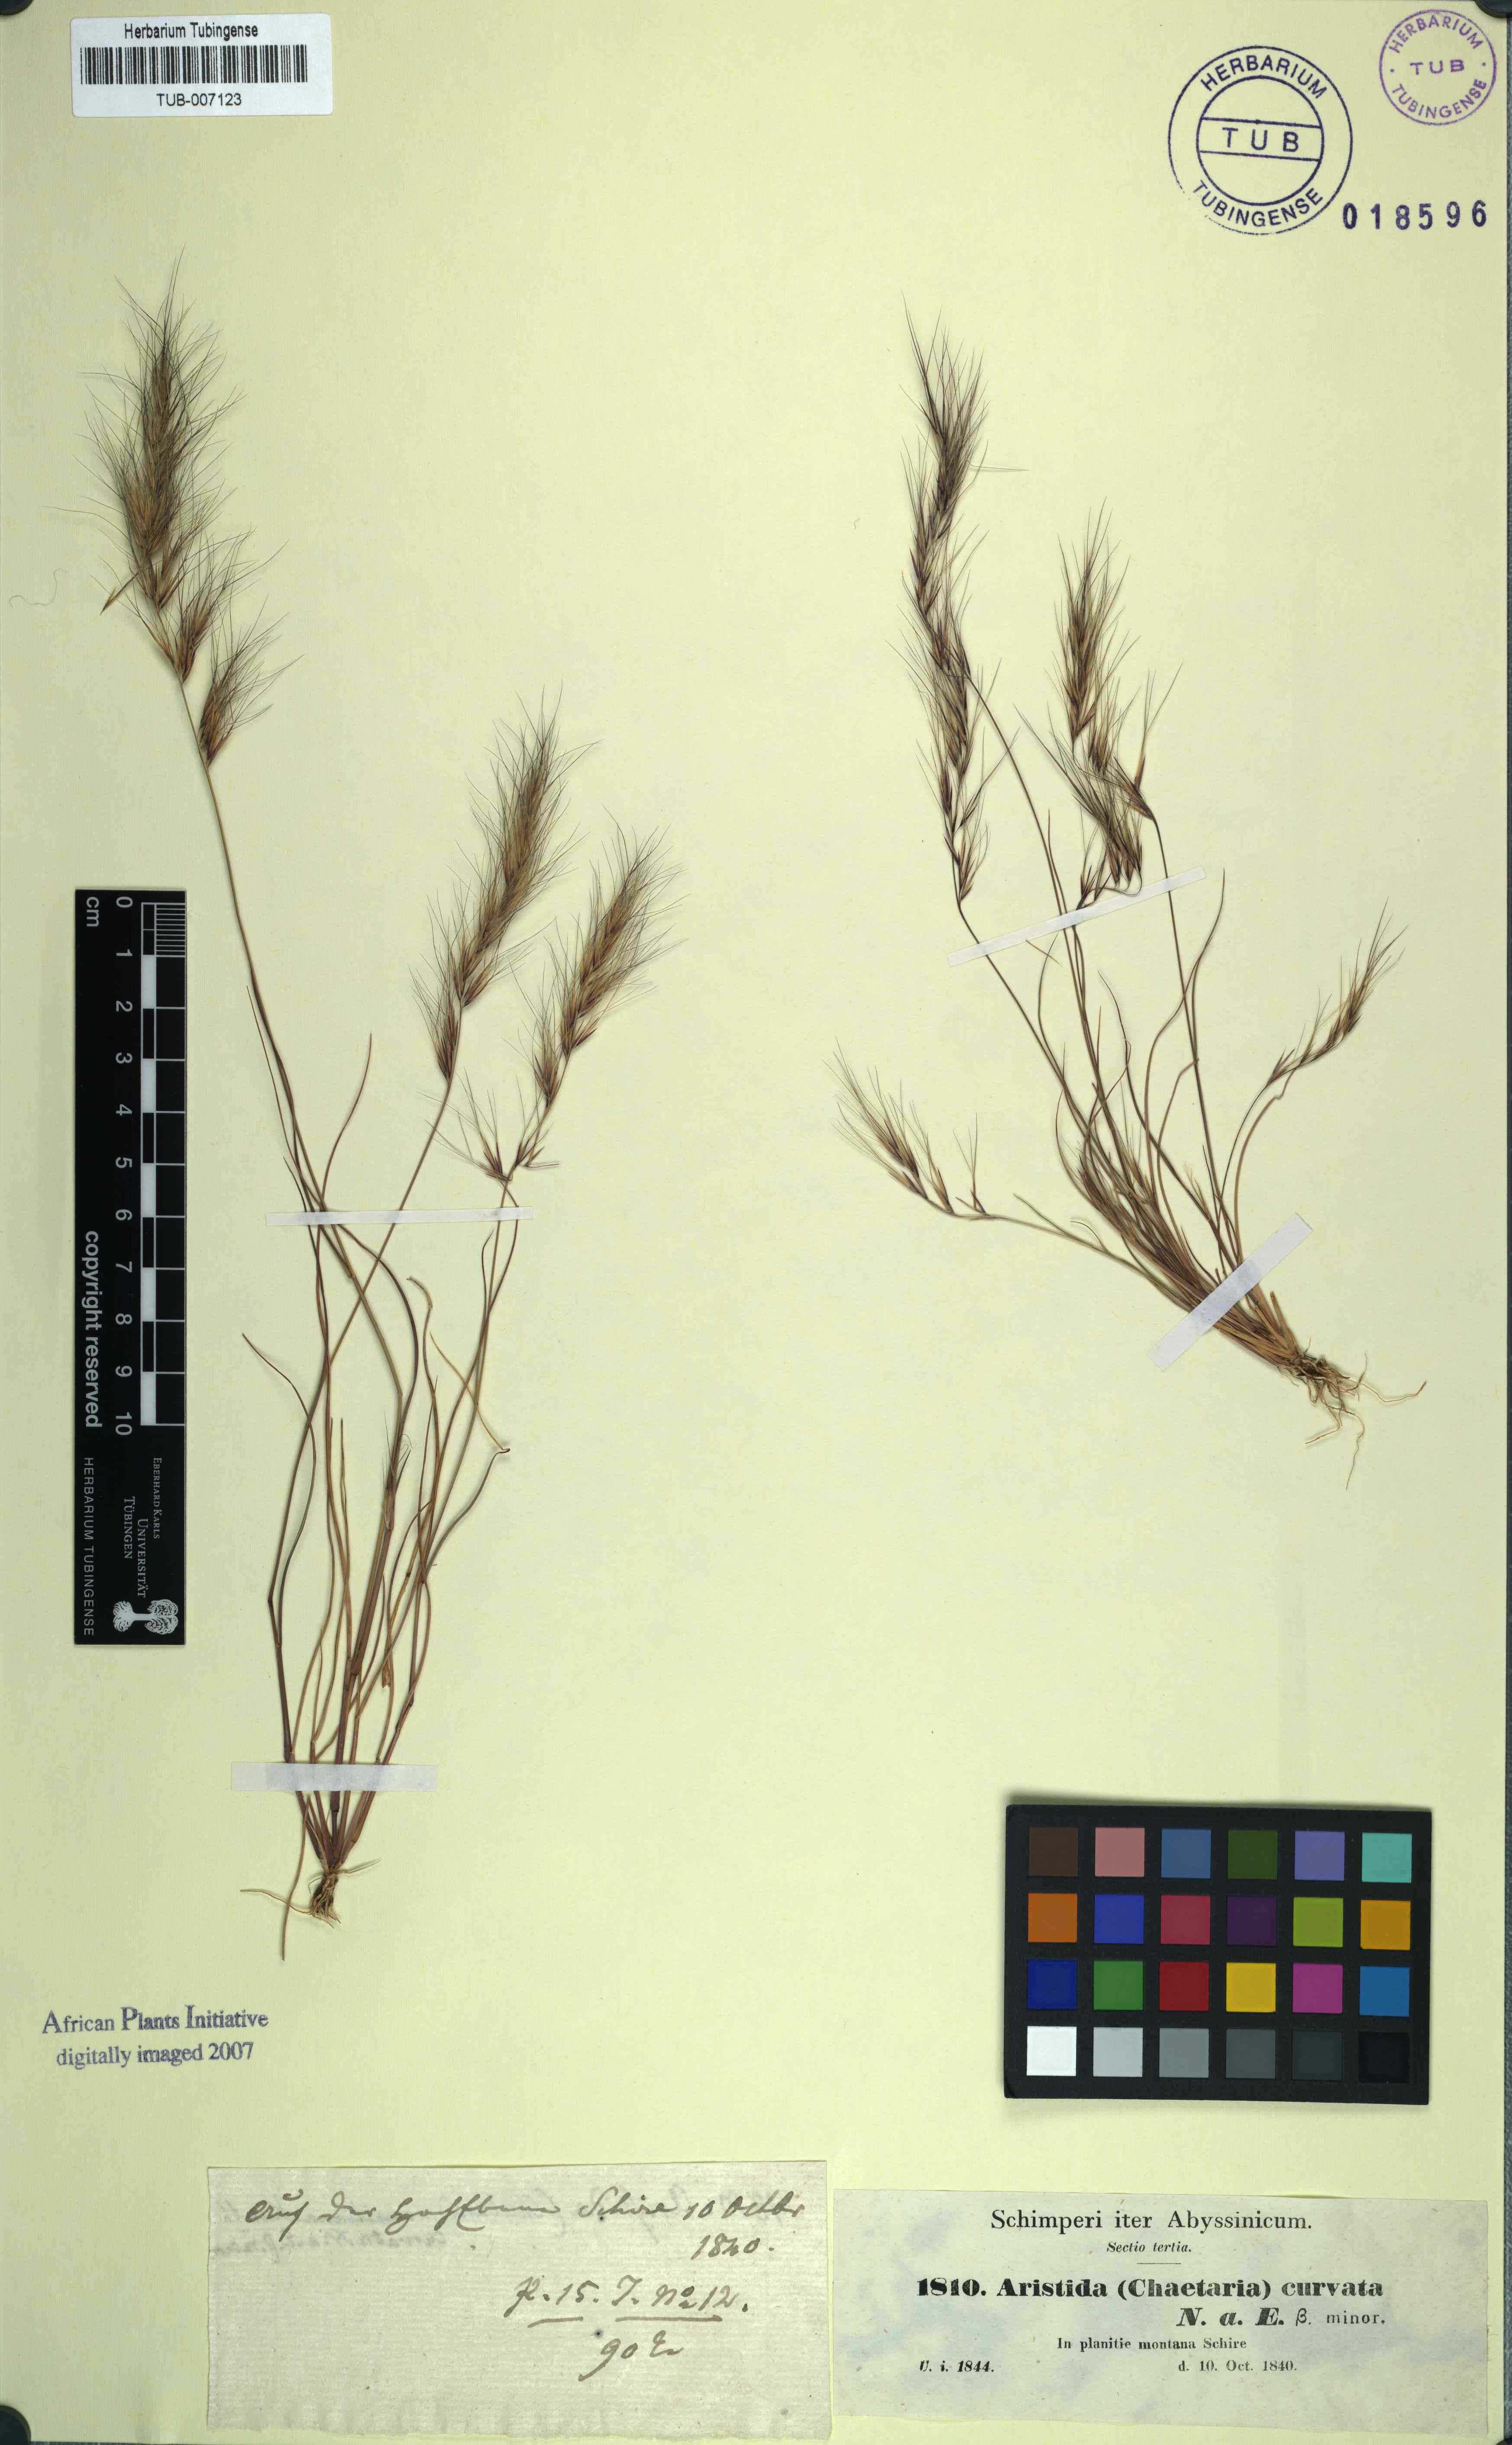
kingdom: Plantae
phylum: Tracheophyta
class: Liliopsida
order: Poales
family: Poaceae
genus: Aristida
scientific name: Aristida adscensionis
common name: Sixweeks threeawn
